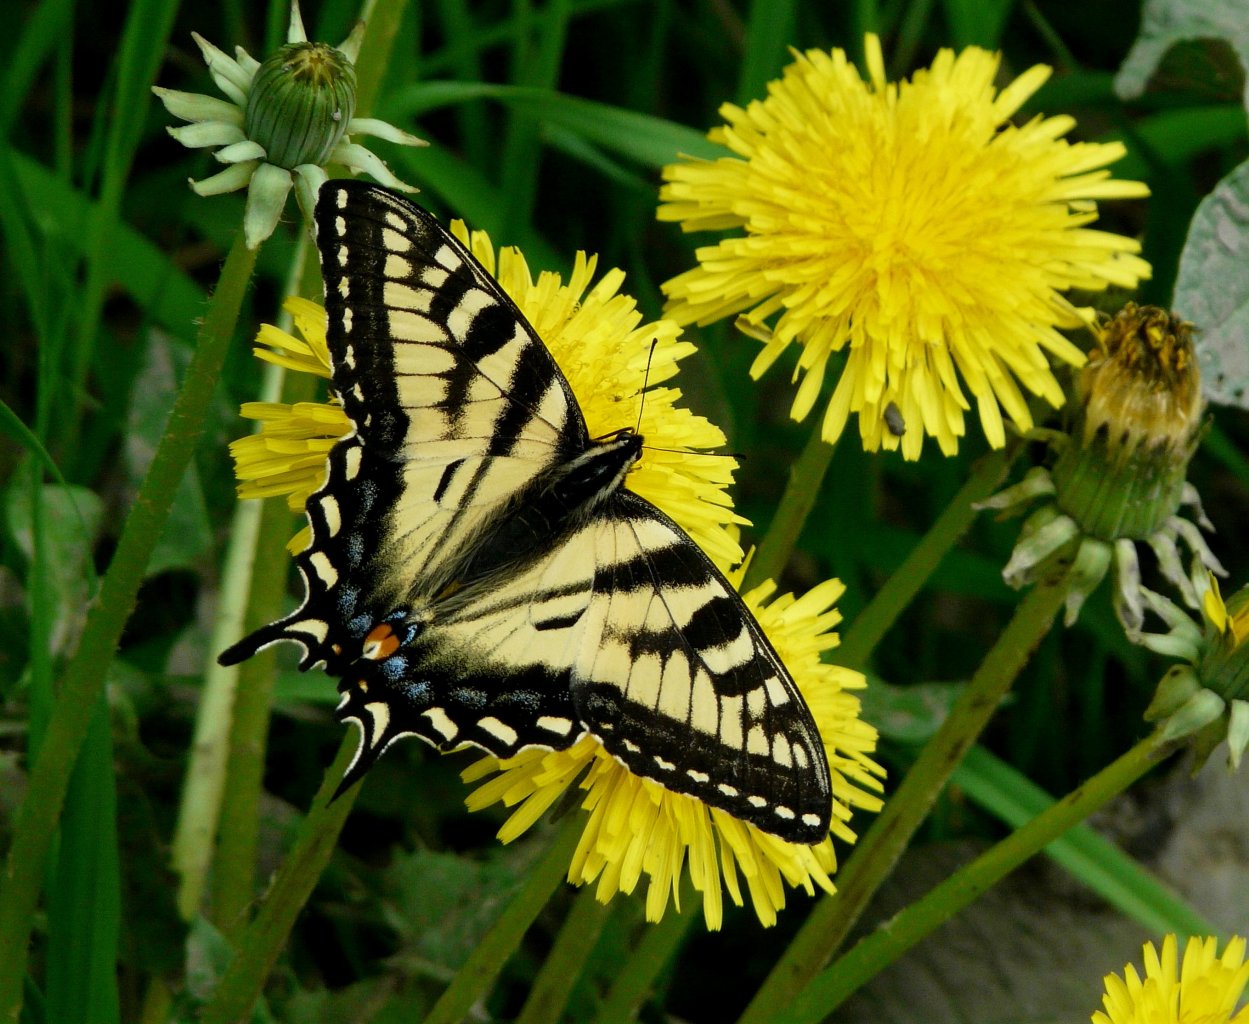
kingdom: Animalia
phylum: Arthropoda
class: Insecta
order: Lepidoptera
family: Papilionidae
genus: Pterourus
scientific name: Pterourus canadensis
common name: Canadian Tiger Swallowtail
